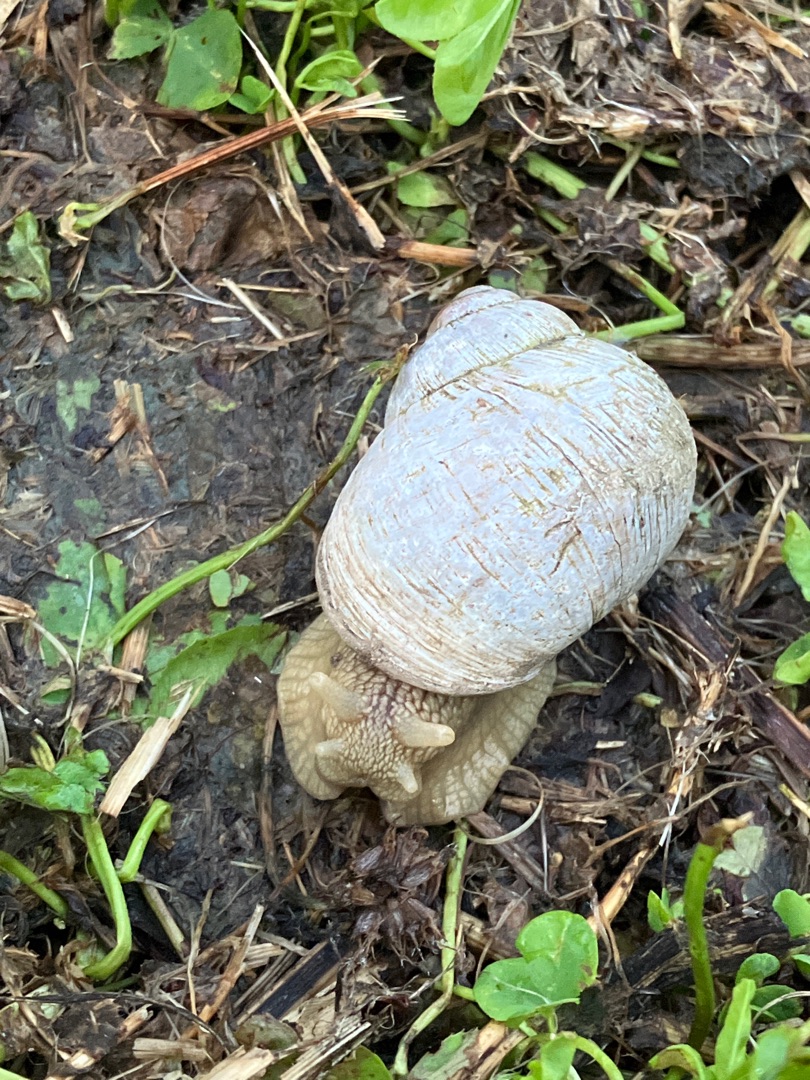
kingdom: Animalia
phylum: Mollusca
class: Gastropoda
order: Stylommatophora
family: Helicidae
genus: Helix
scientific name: Helix pomatia
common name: Vinbjergsnegl
